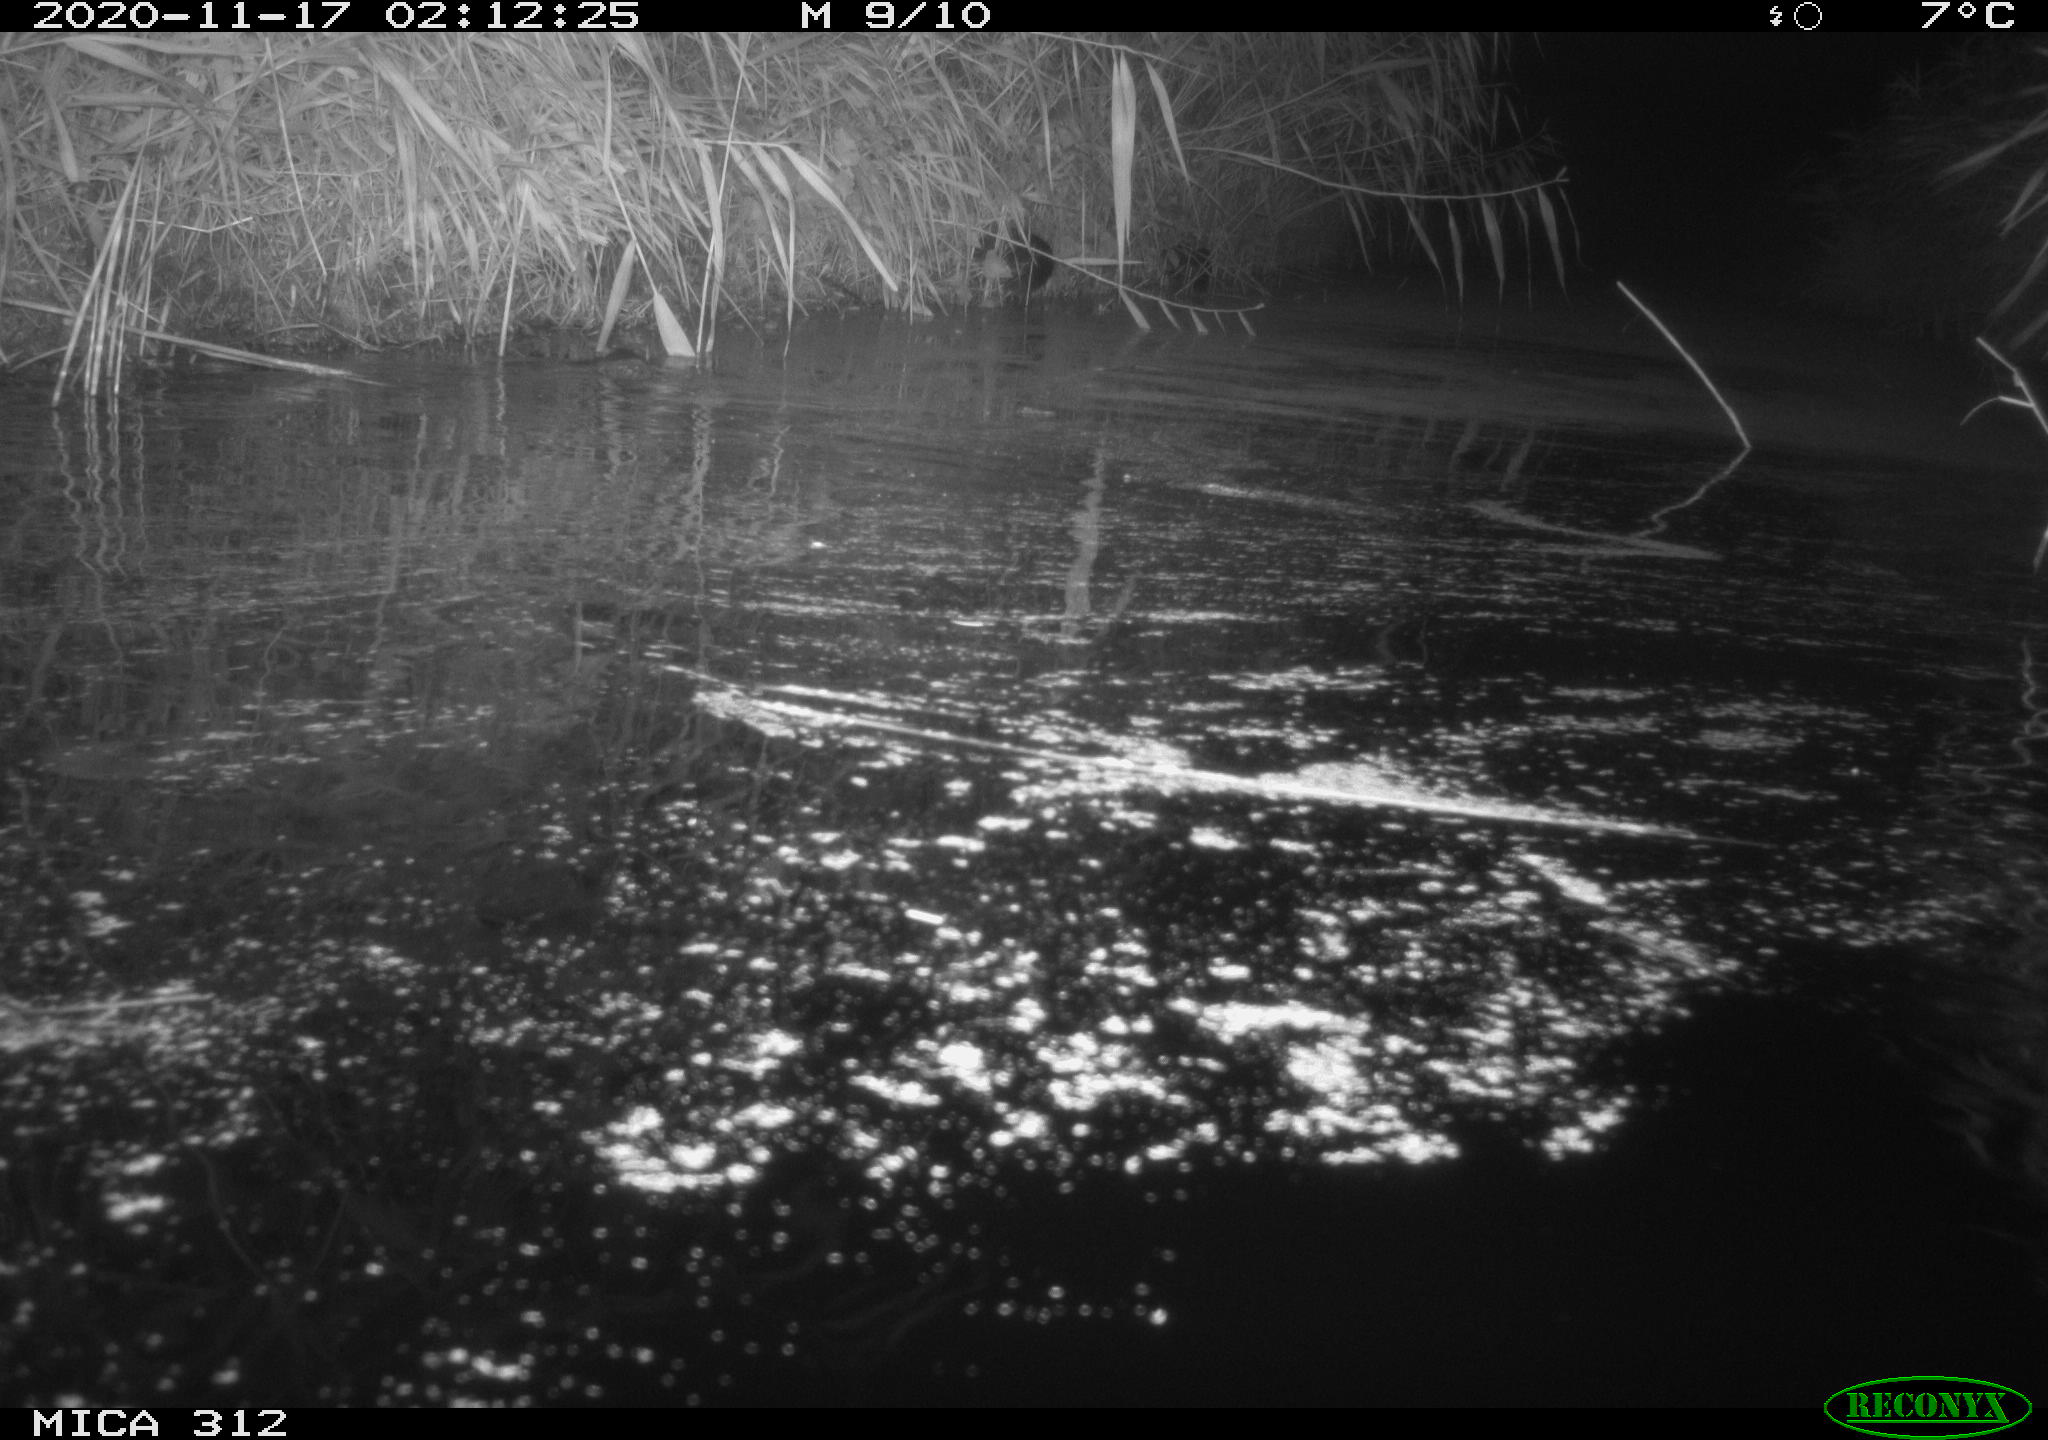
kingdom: Animalia
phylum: Chordata
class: Mammalia
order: Rodentia
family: Muridae
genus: Rattus
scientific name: Rattus norvegicus
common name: Brown rat
